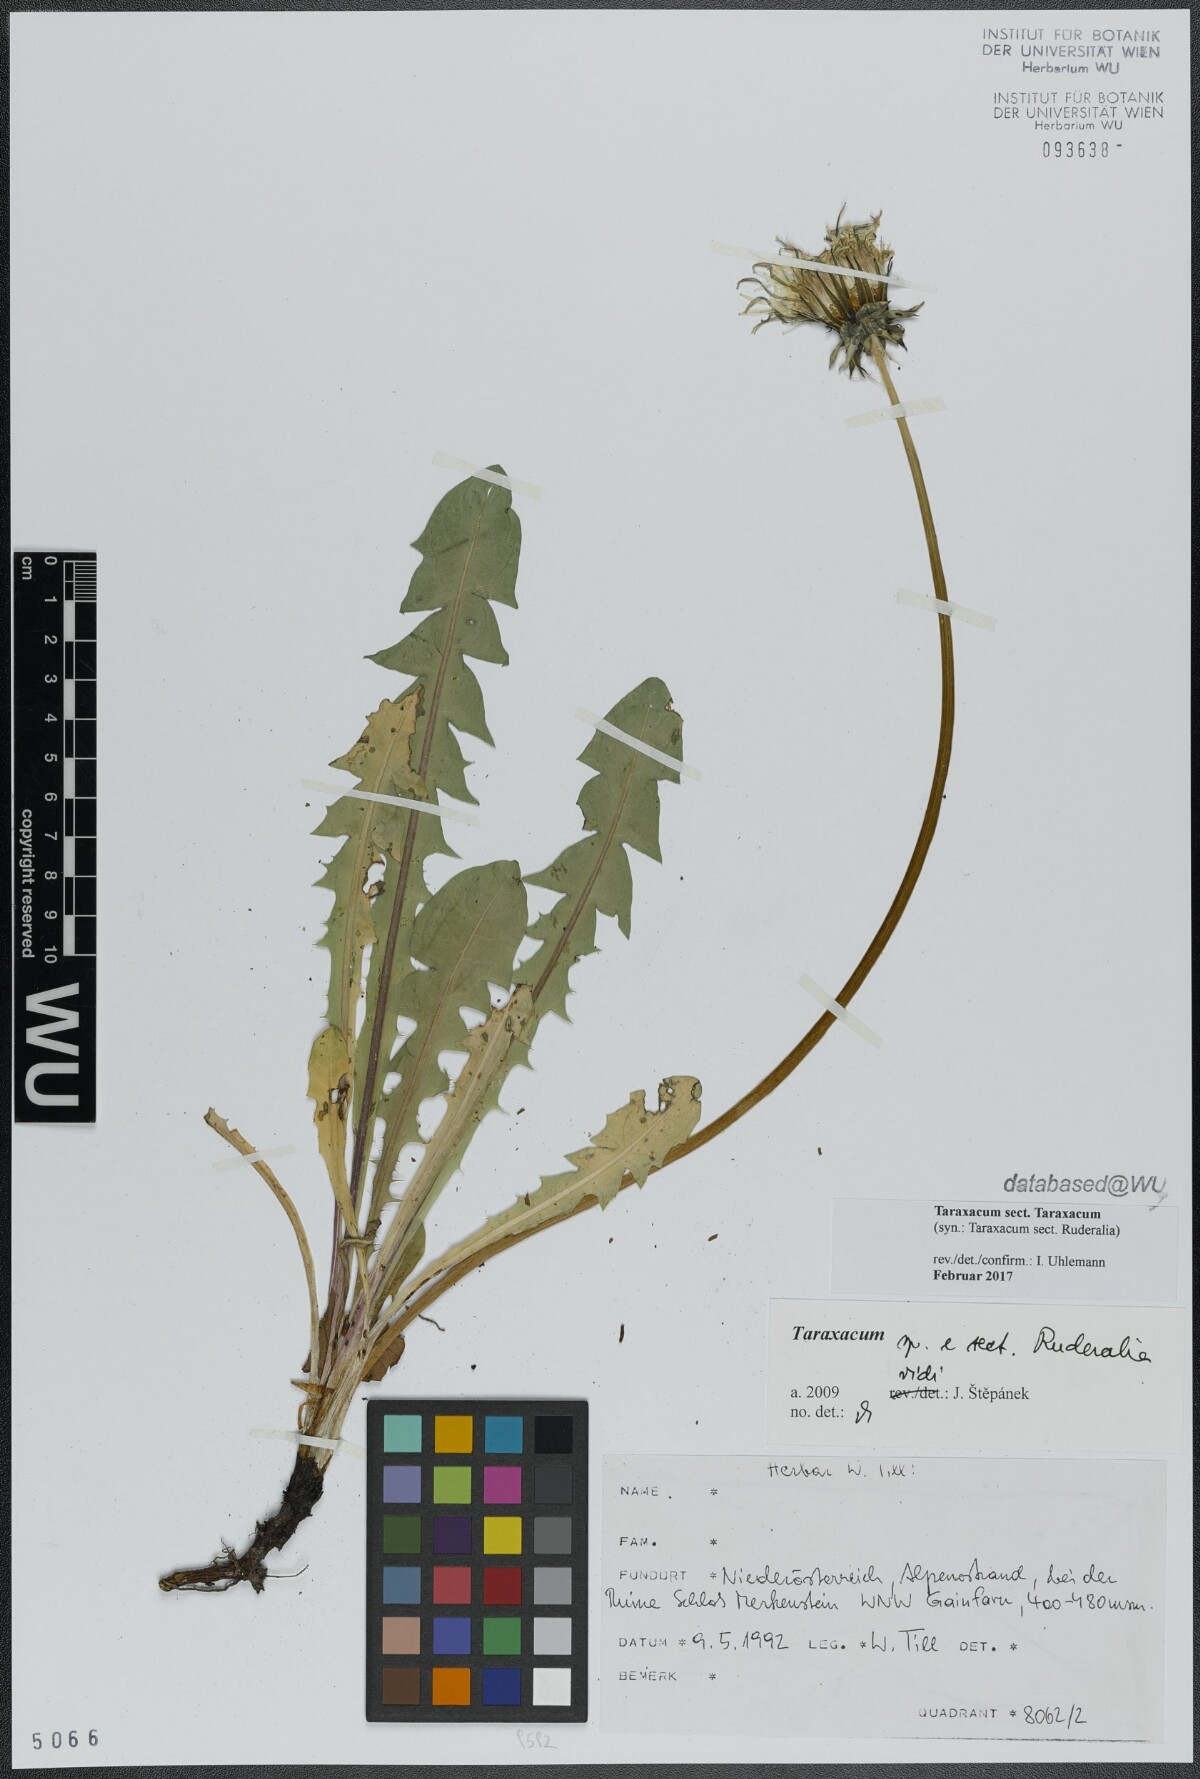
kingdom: Plantae
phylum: Tracheophyta
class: Magnoliopsida
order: Asterales
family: Asteraceae
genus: Taraxacum
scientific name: Taraxacum
